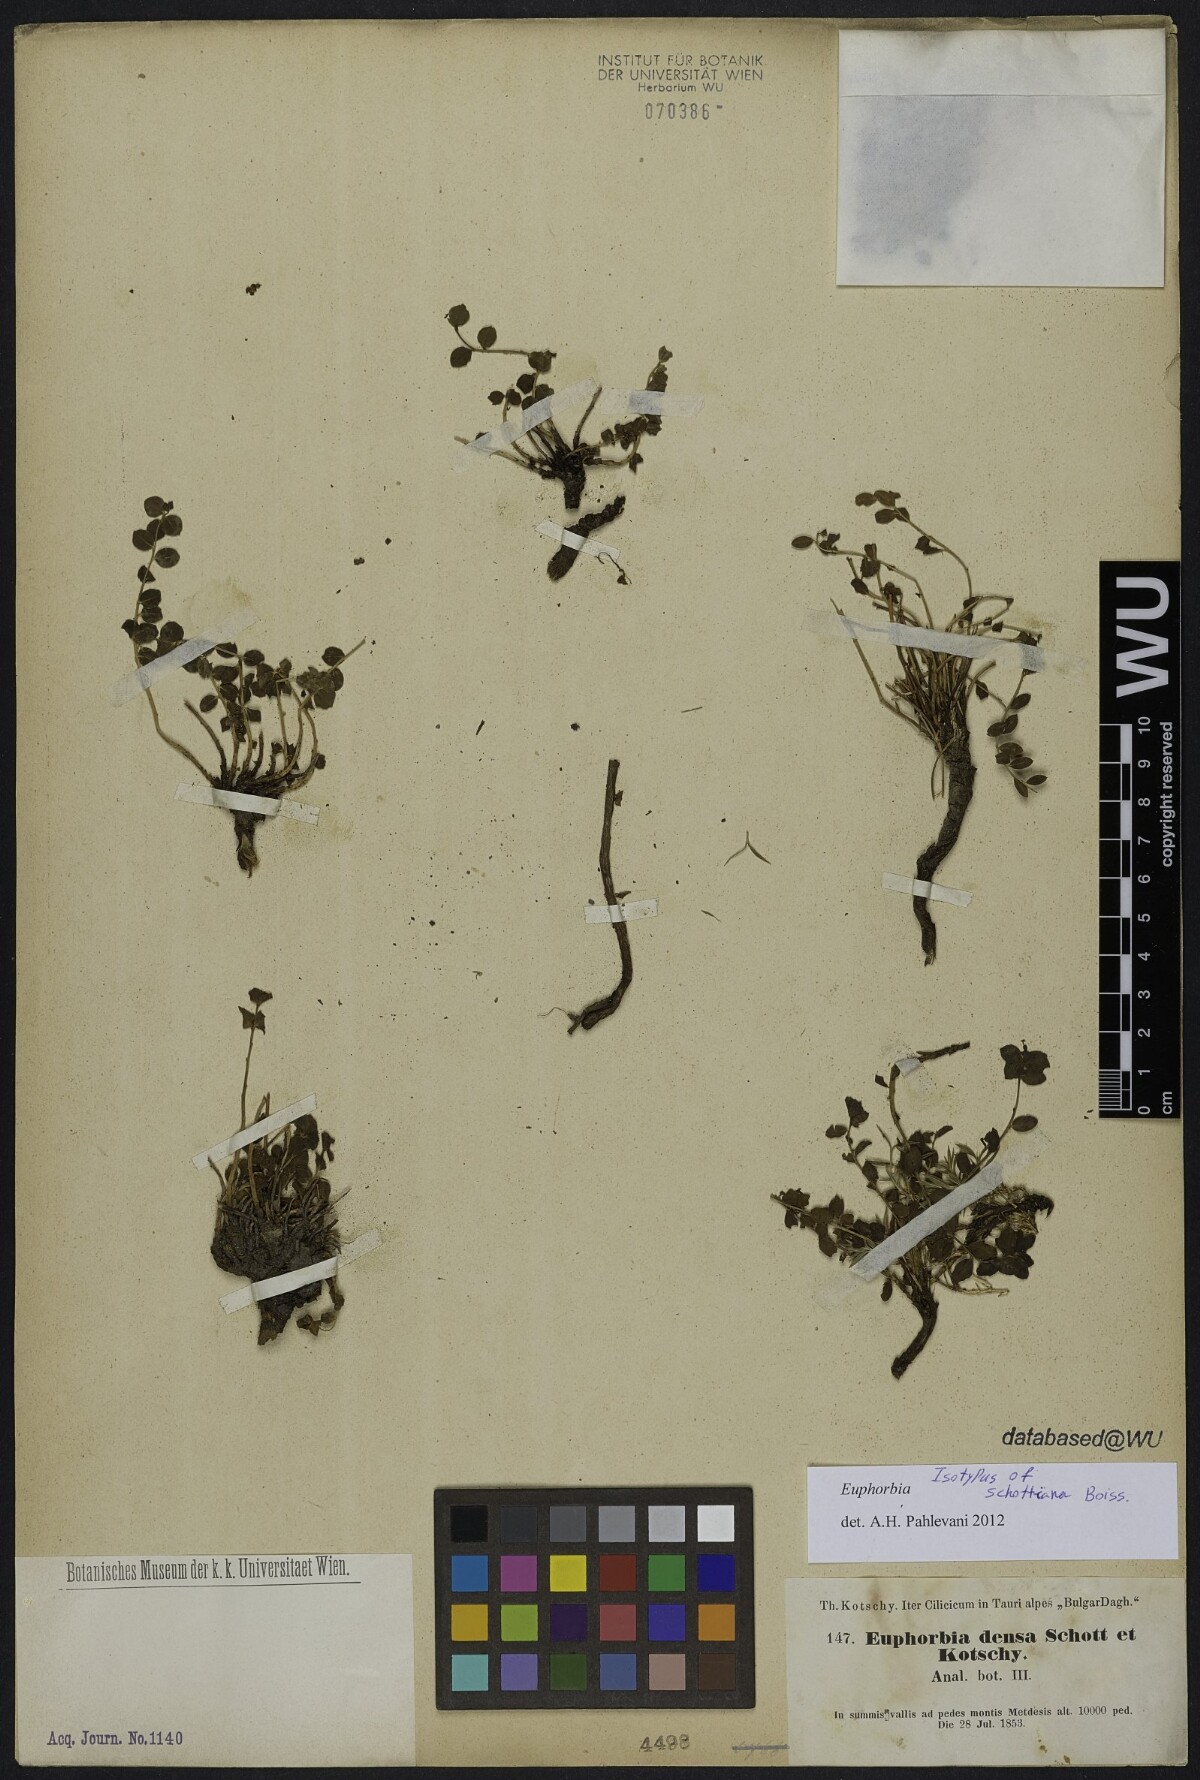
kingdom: Plantae
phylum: Tracheophyta
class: Magnoliopsida
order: Malpighiales
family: Euphorbiaceae
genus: Euphorbia
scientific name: Euphorbia schottiana
